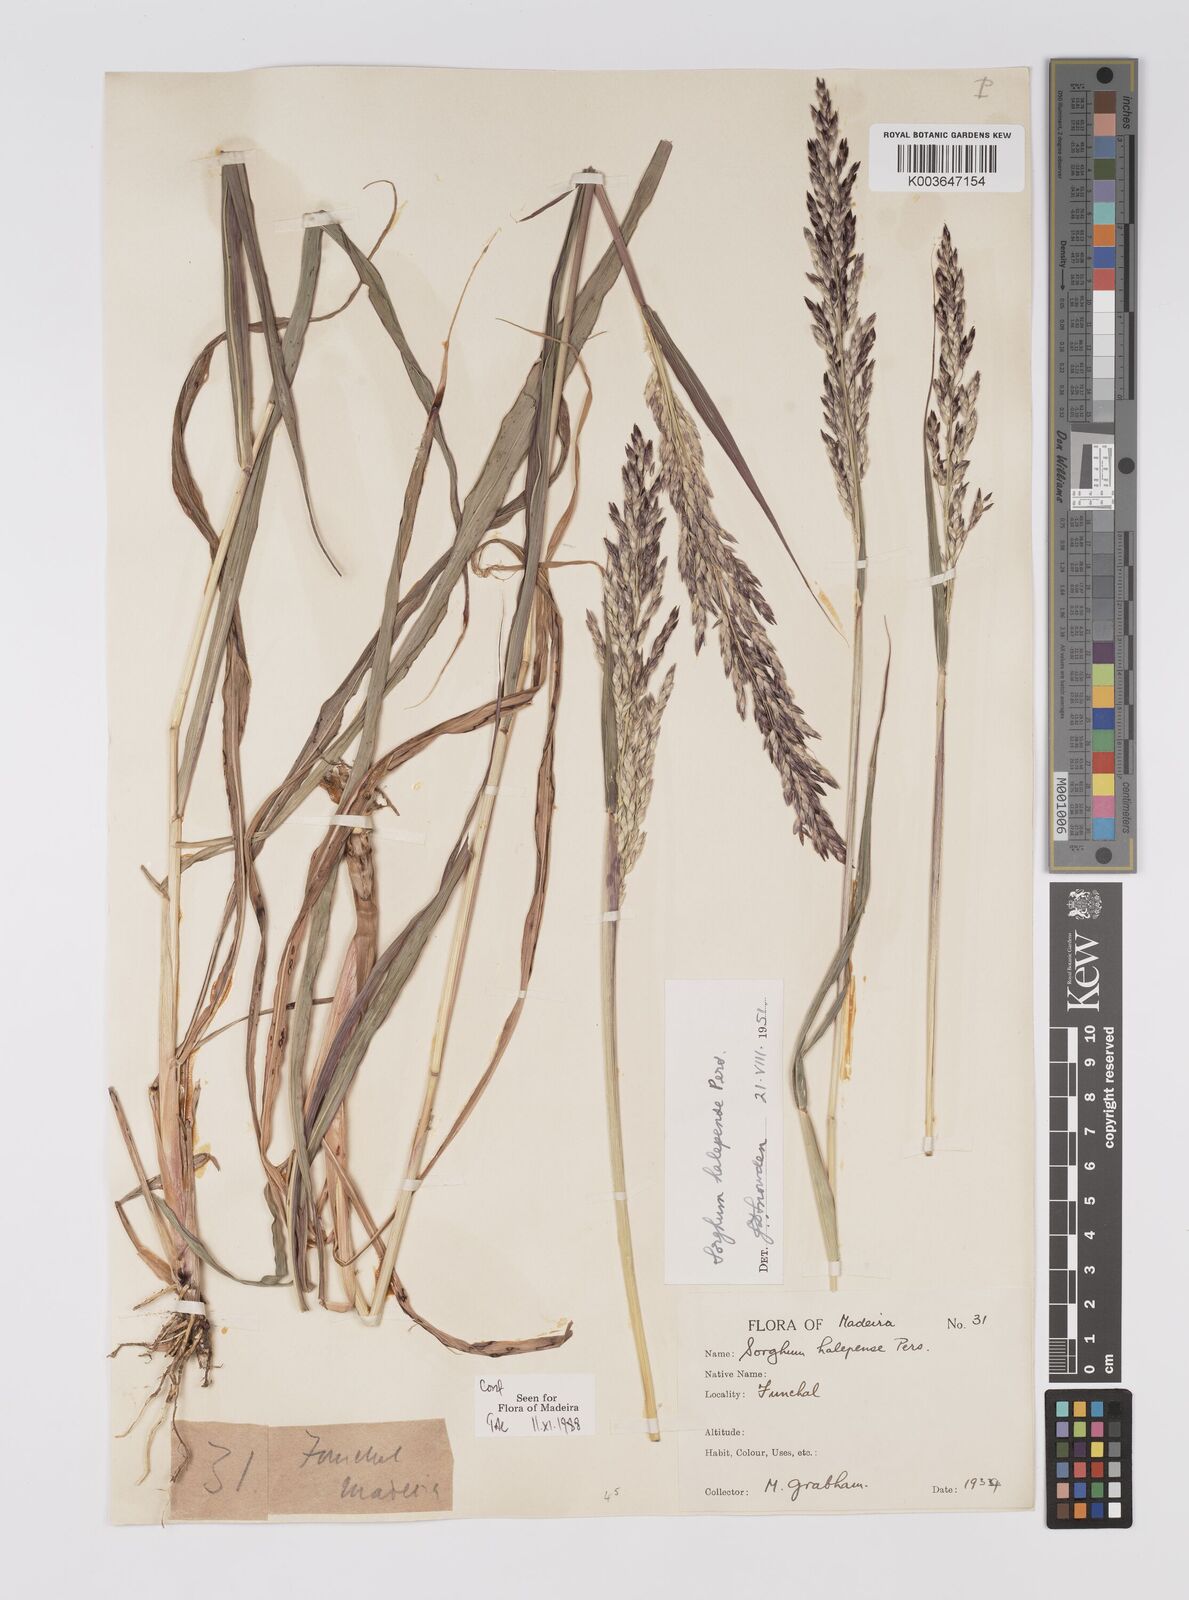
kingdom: Plantae
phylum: Tracheophyta
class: Liliopsida
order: Poales
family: Poaceae
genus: Sorghum
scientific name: Sorghum halepense
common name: Johnson-grass
